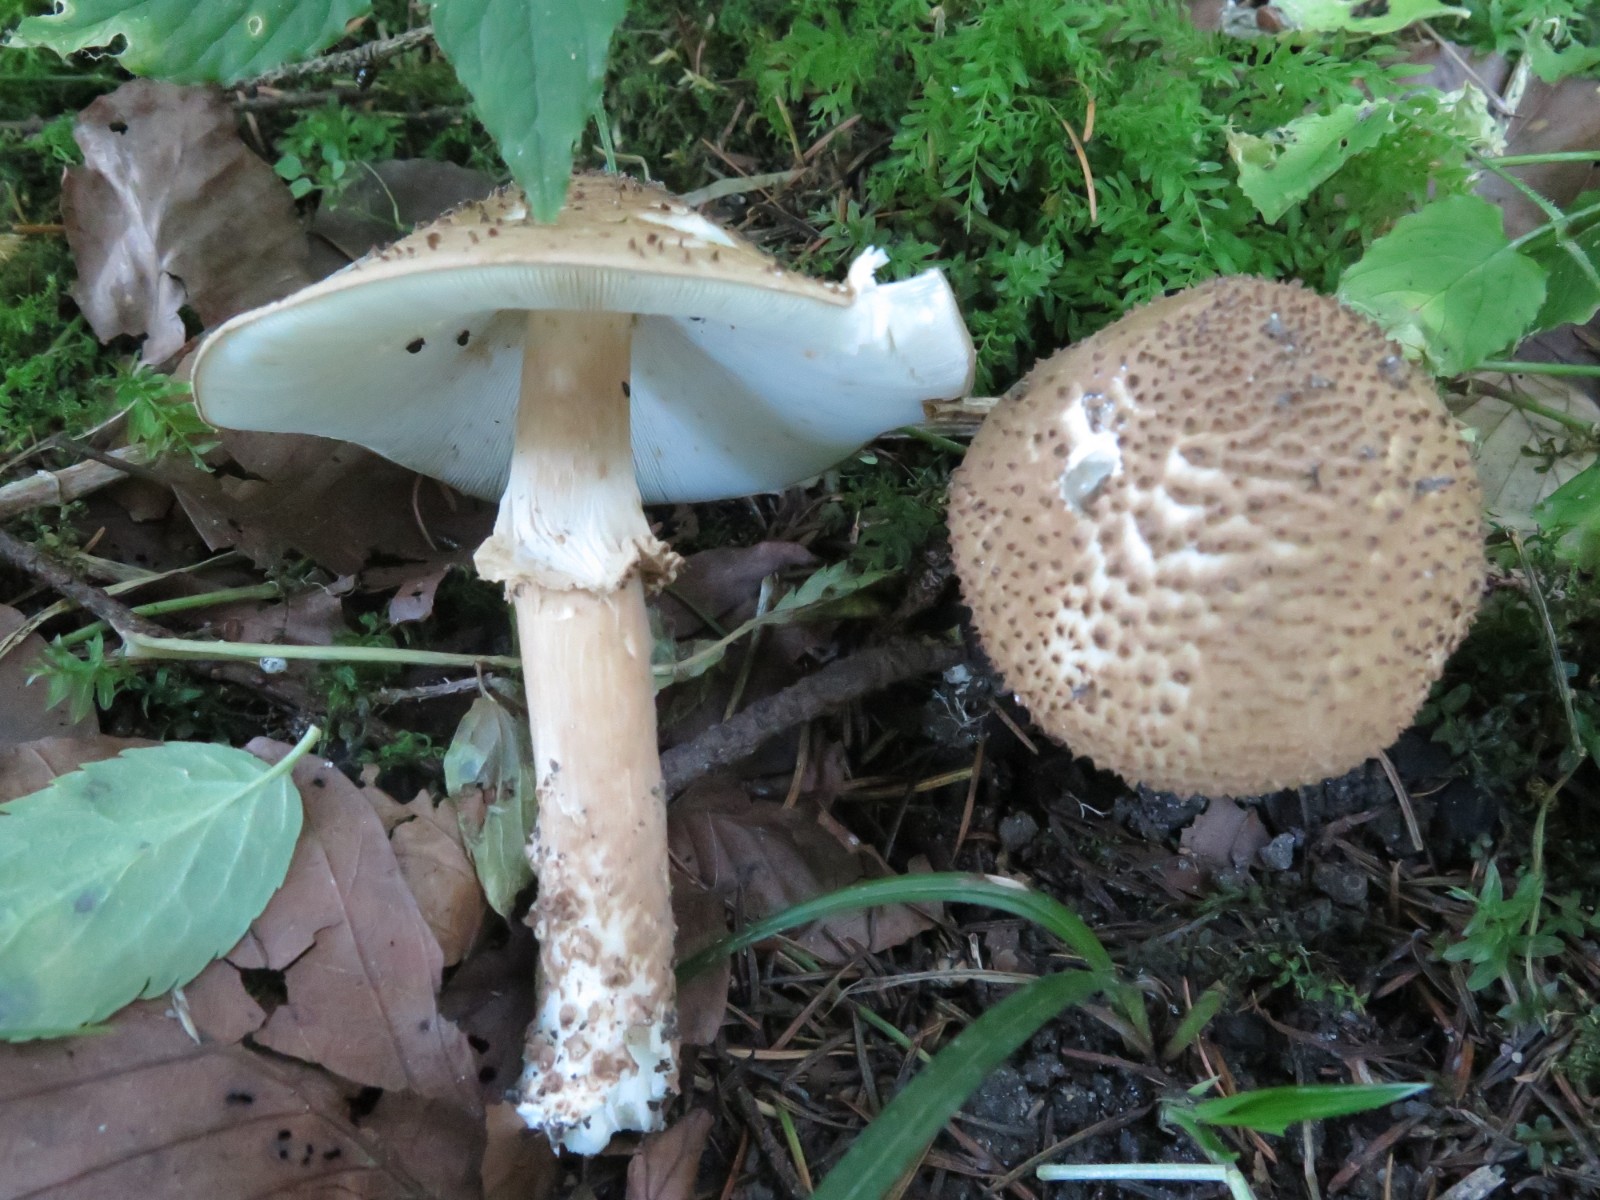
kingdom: Fungi
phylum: Basidiomycota
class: Agaricomycetes
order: Agaricales
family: Agaricaceae
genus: Echinoderma
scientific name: Echinoderma asperum
